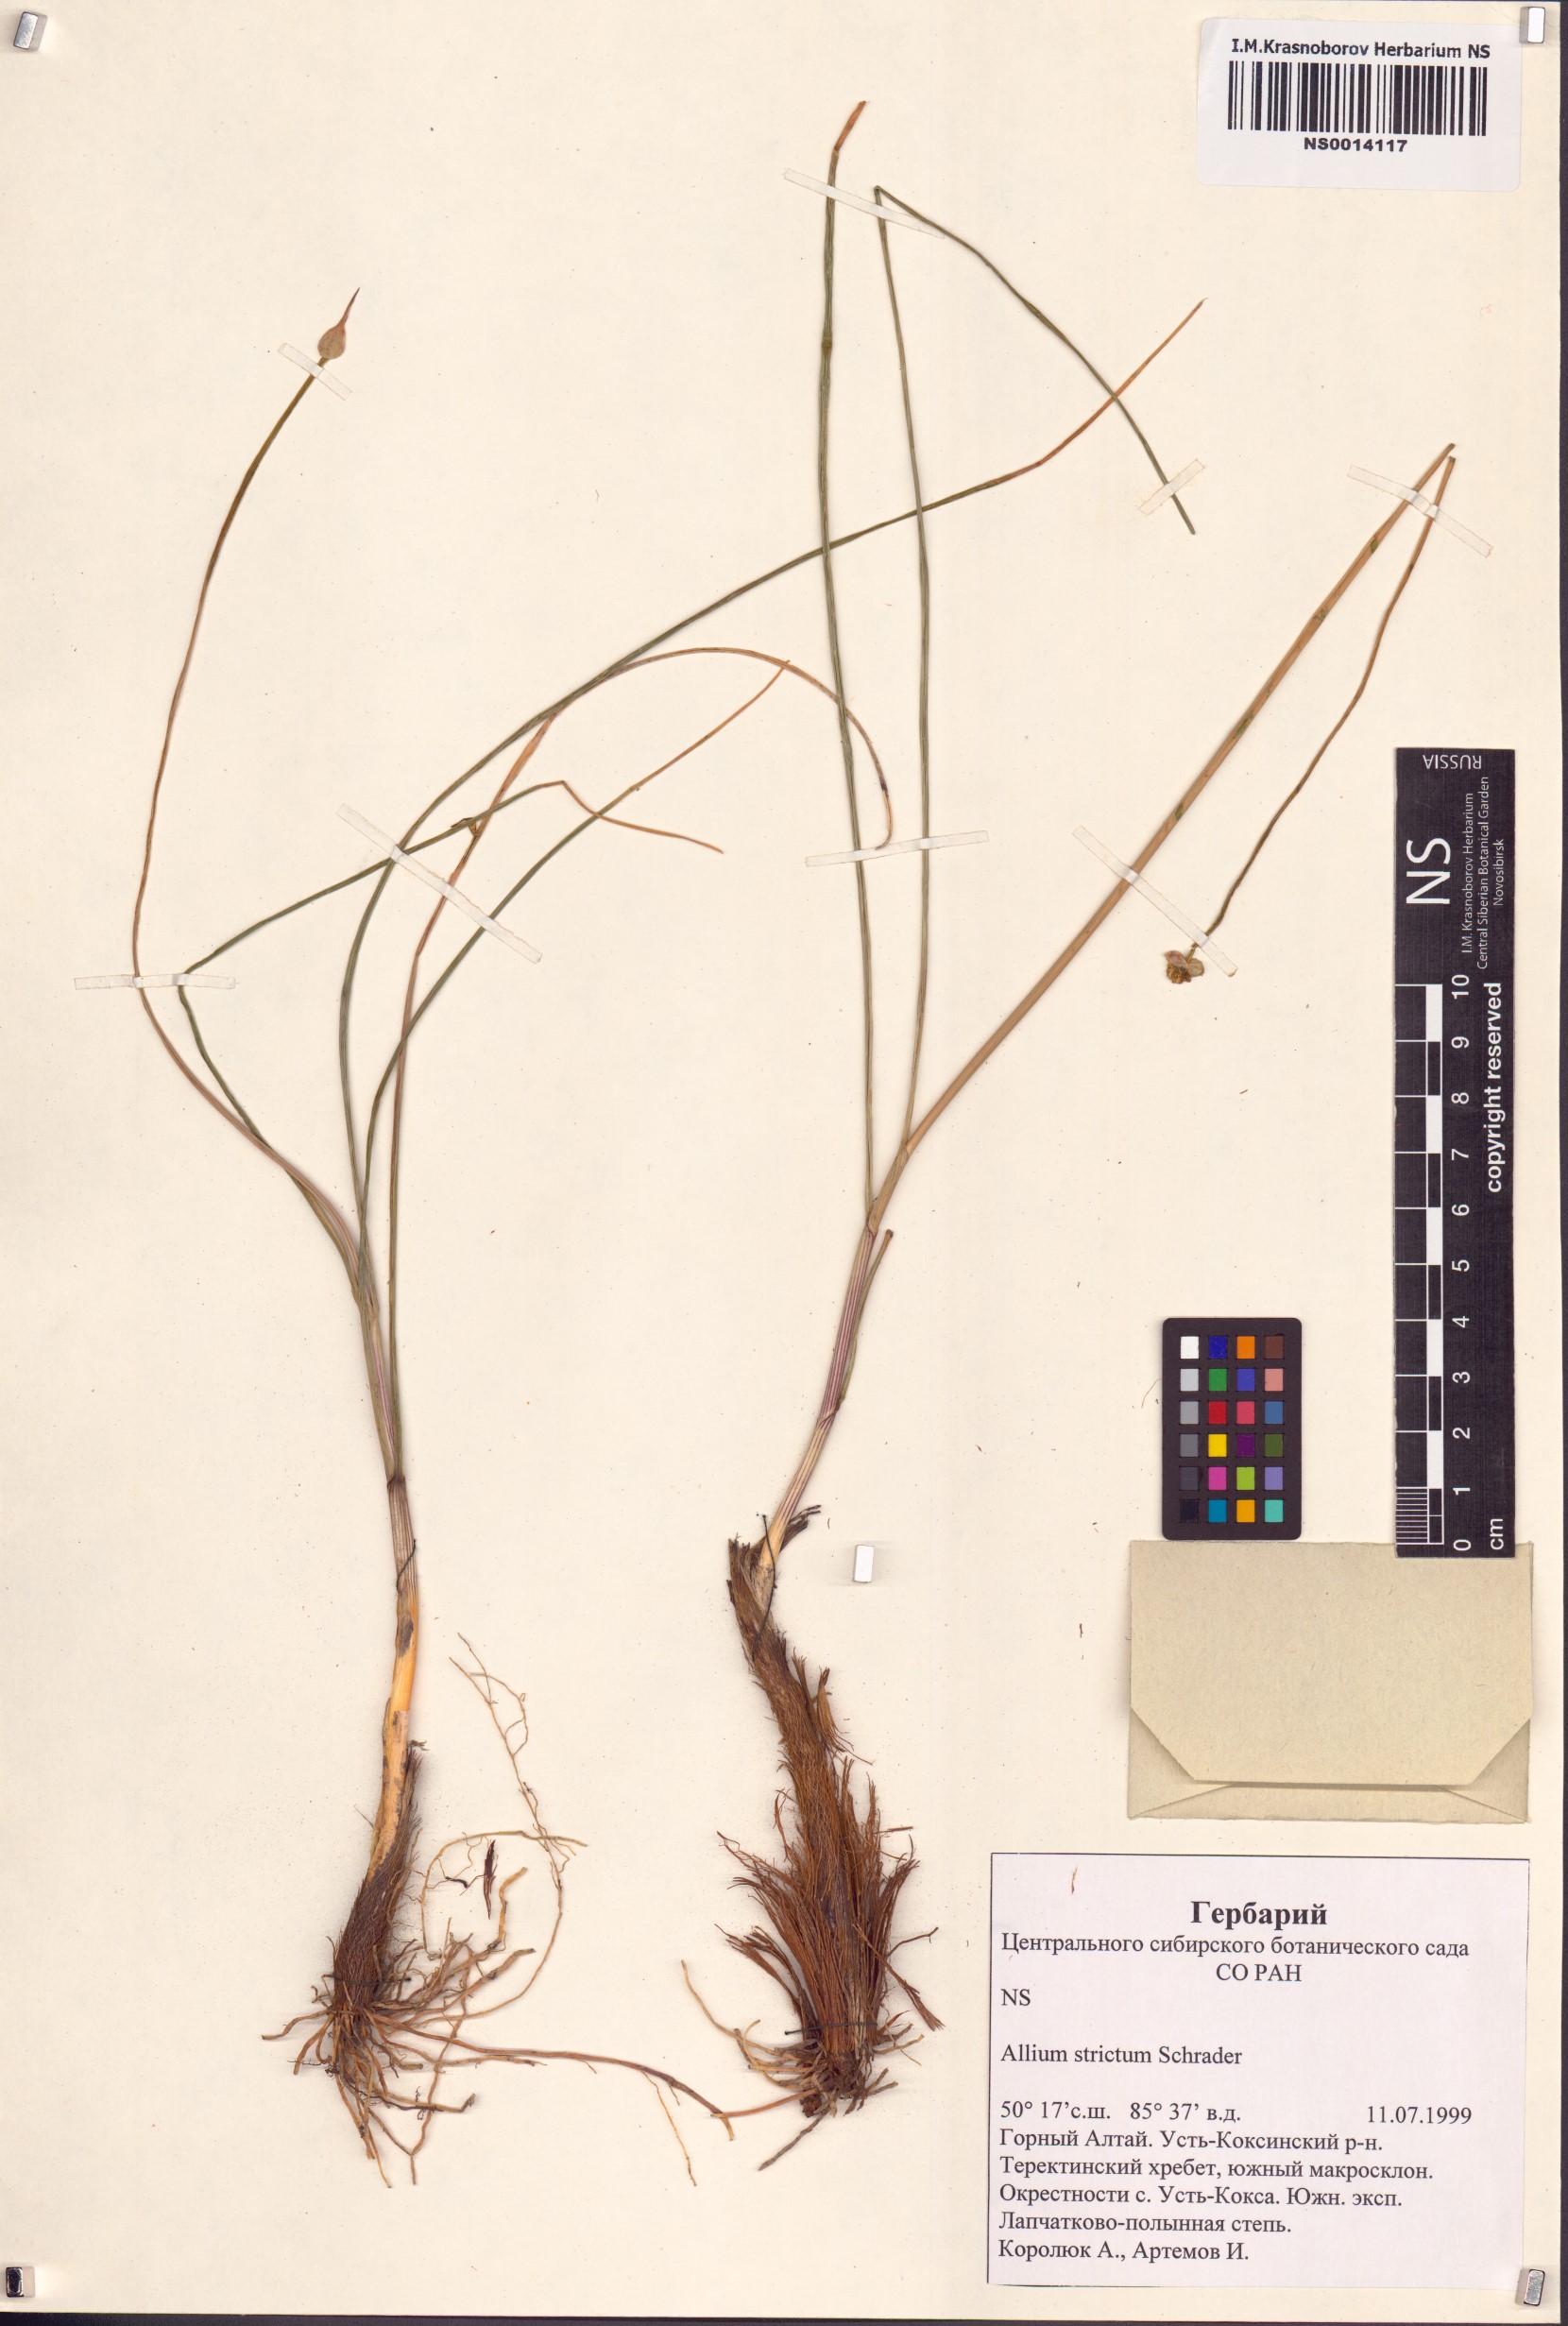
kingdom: Plantae
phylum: Tracheophyta
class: Liliopsida
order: Asparagales
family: Amaryllidaceae
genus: Allium
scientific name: Allium strictum
